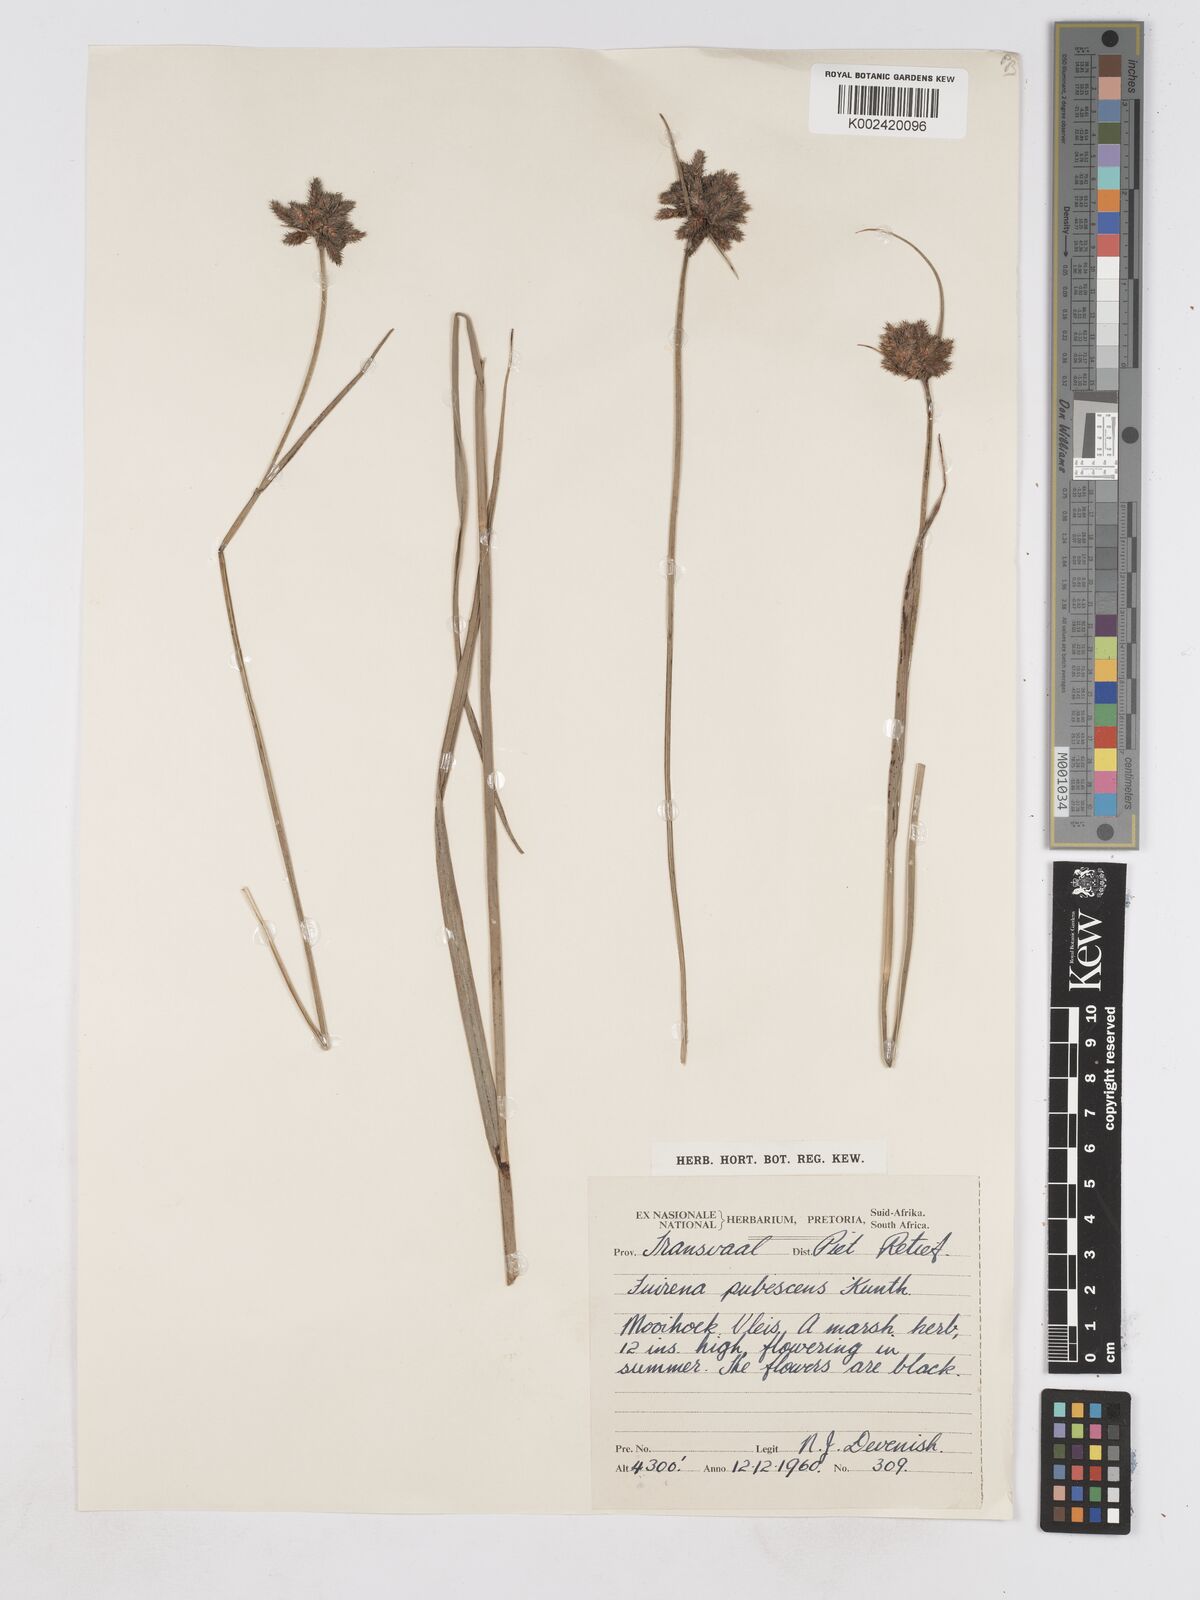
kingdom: Plantae
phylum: Tracheophyta
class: Liliopsida
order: Poales
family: Cyperaceae
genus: Fuirena
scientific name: Fuirena pubescens
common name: Hairy sedge
